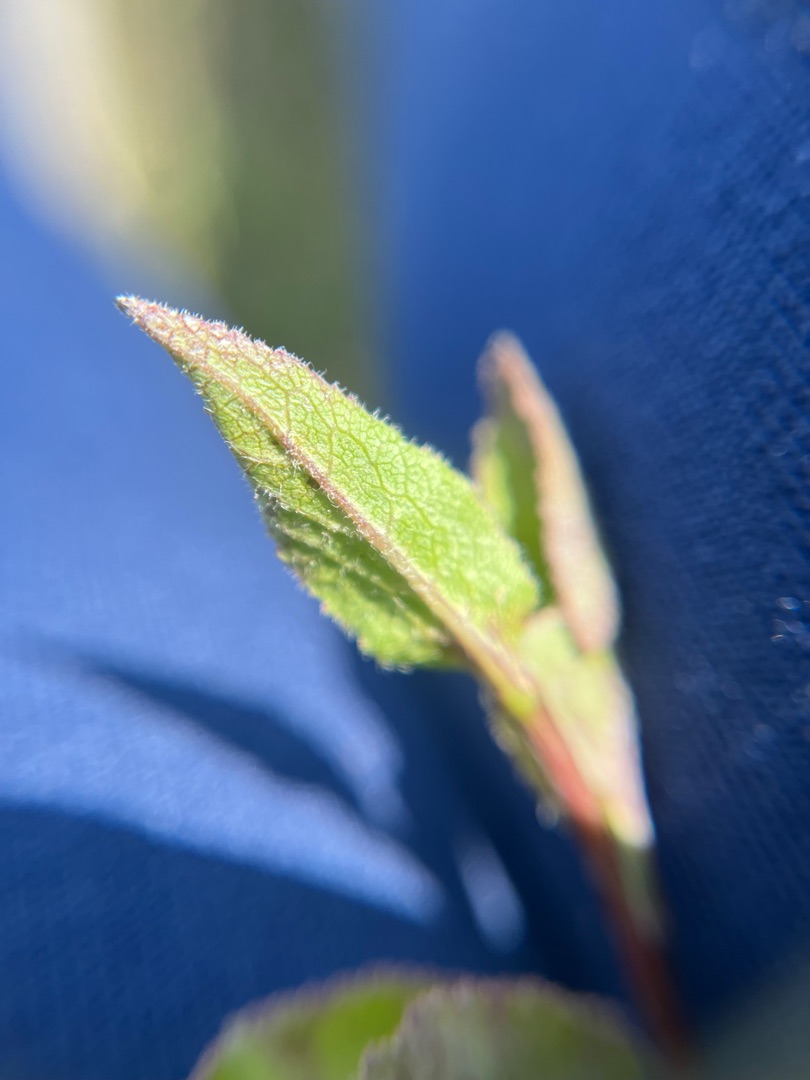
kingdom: Plantae
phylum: Tracheophyta
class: Magnoliopsida
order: Asterales
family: Campanulaceae
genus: Campanula
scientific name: Campanula glomerata
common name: Nøgleblomstret klokke
